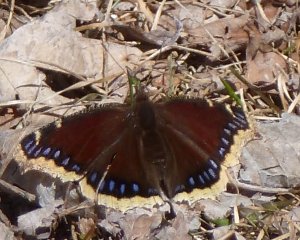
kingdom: Animalia
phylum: Arthropoda
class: Insecta
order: Lepidoptera
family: Nymphalidae
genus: Nymphalis
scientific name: Nymphalis antiopa
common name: Mourning Cloak
